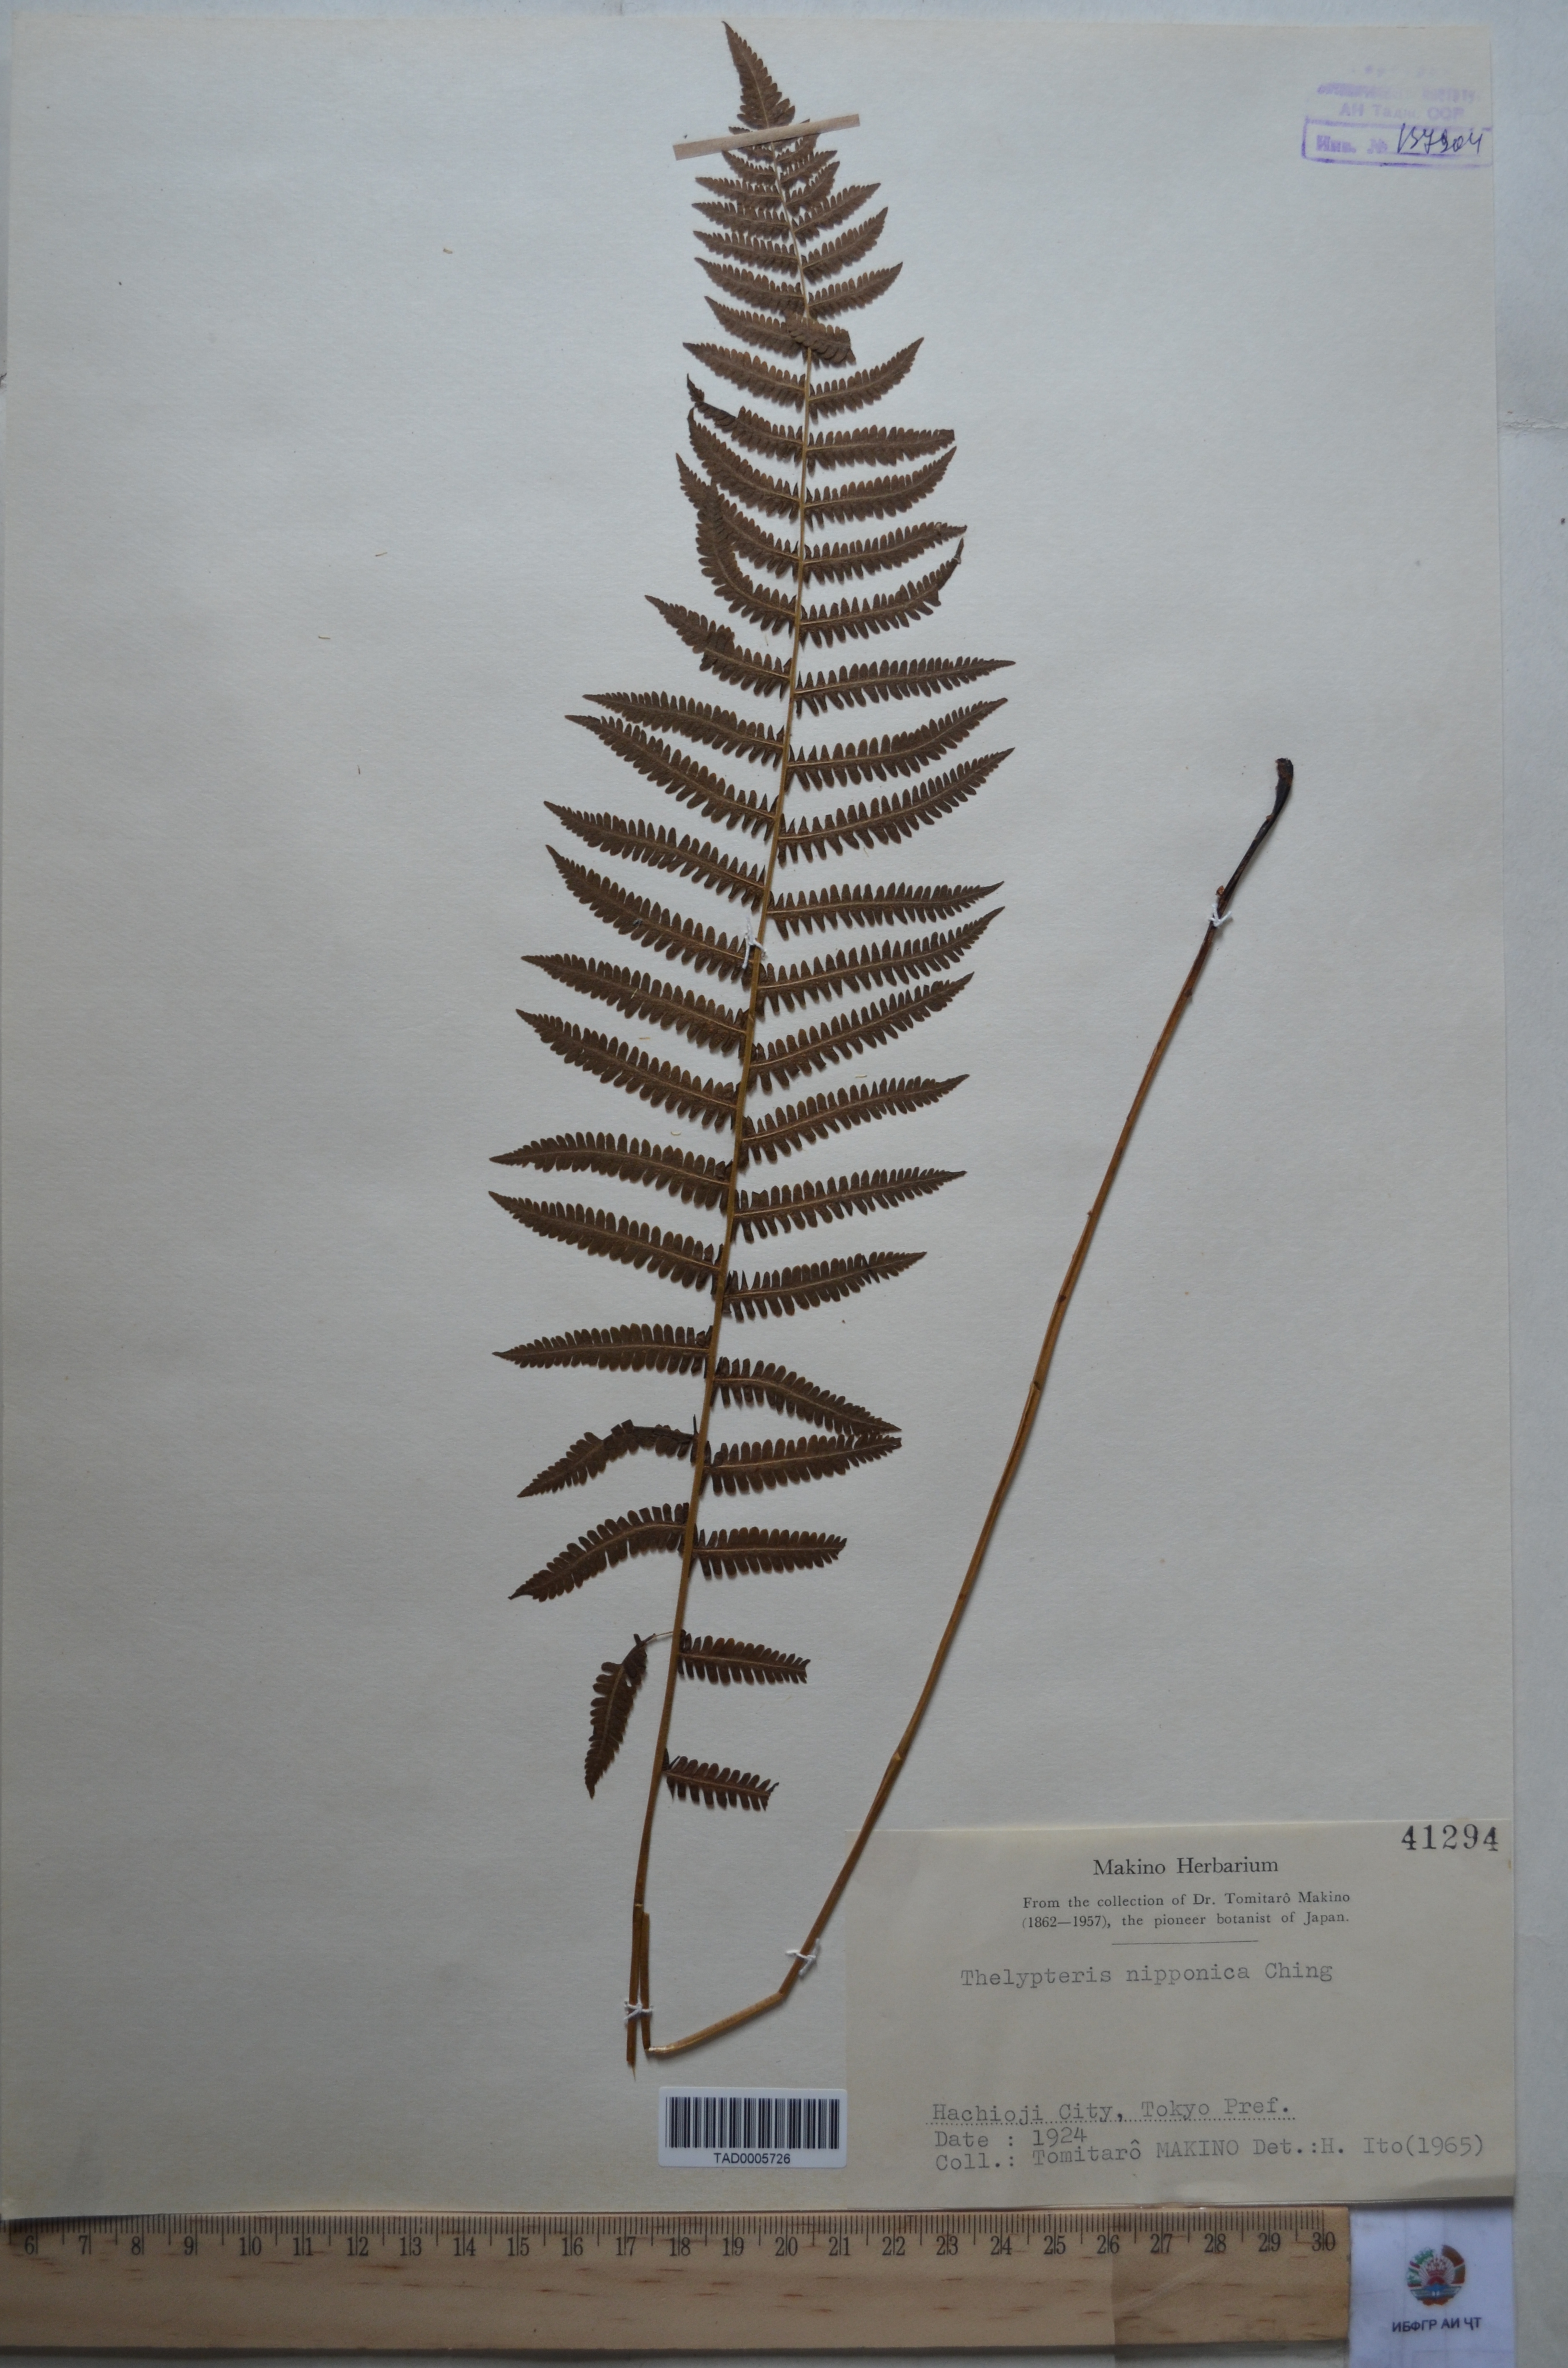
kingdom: Plantae
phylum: Tracheophyta
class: Polypodiopsida
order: Polypodiales
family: Thelypteridaceae
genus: Coryphopteris
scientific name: Coryphopteris nipponica
